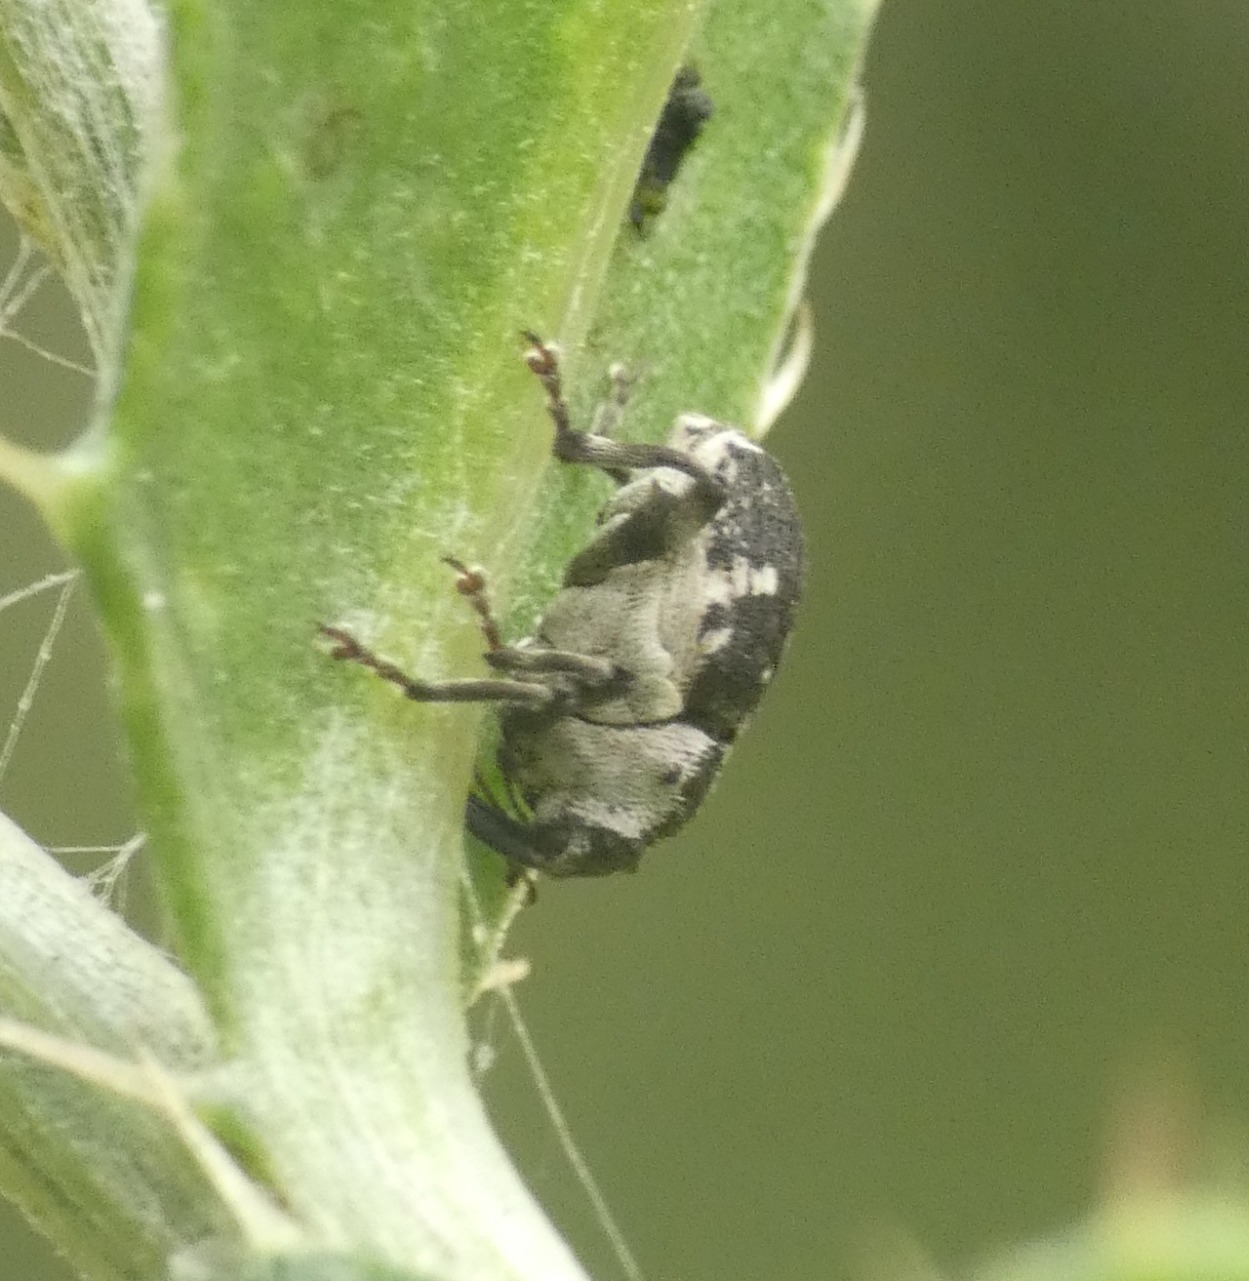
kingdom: Animalia
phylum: Arthropoda
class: Insecta
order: Coleoptera
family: Curculionidae
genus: Hadroplontus
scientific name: Hadroplontus litura
